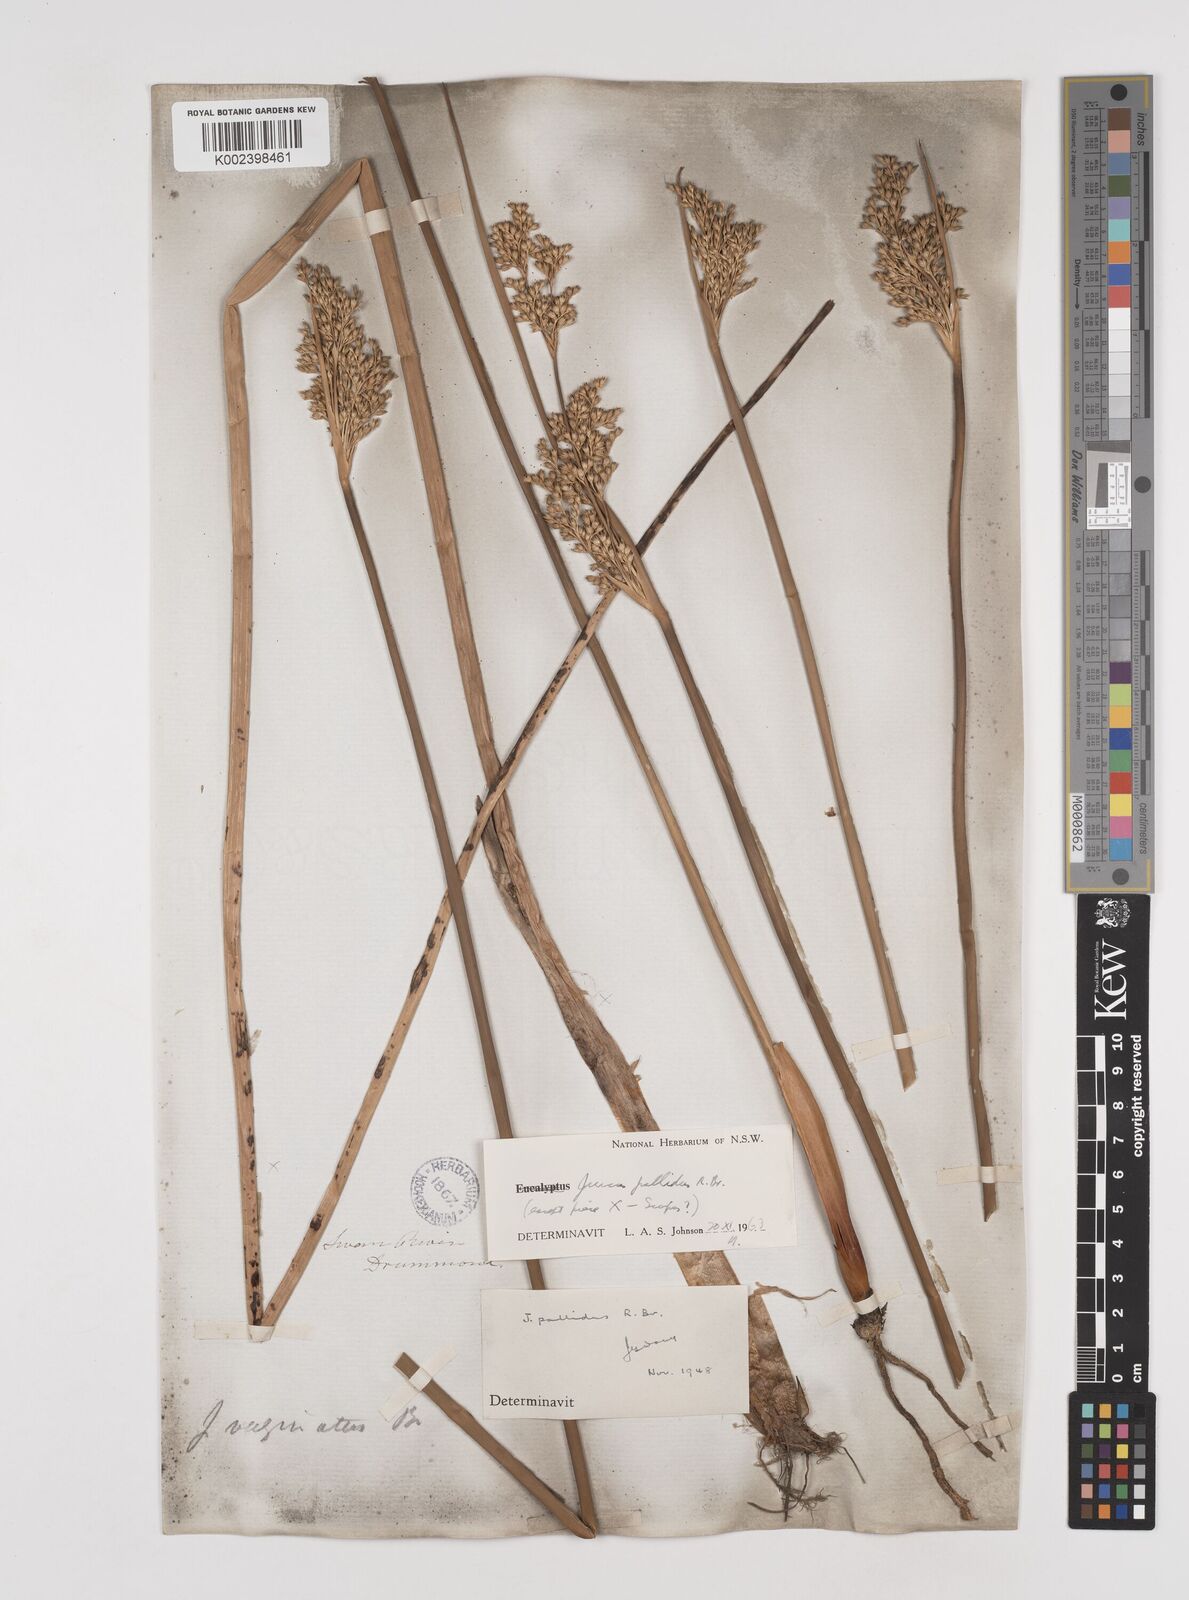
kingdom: Plantae
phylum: Tracheophyta
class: Liliopsida
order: Poales
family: Juncaceae
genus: Juncus
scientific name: Juncus pallidus
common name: Great soft-rush
